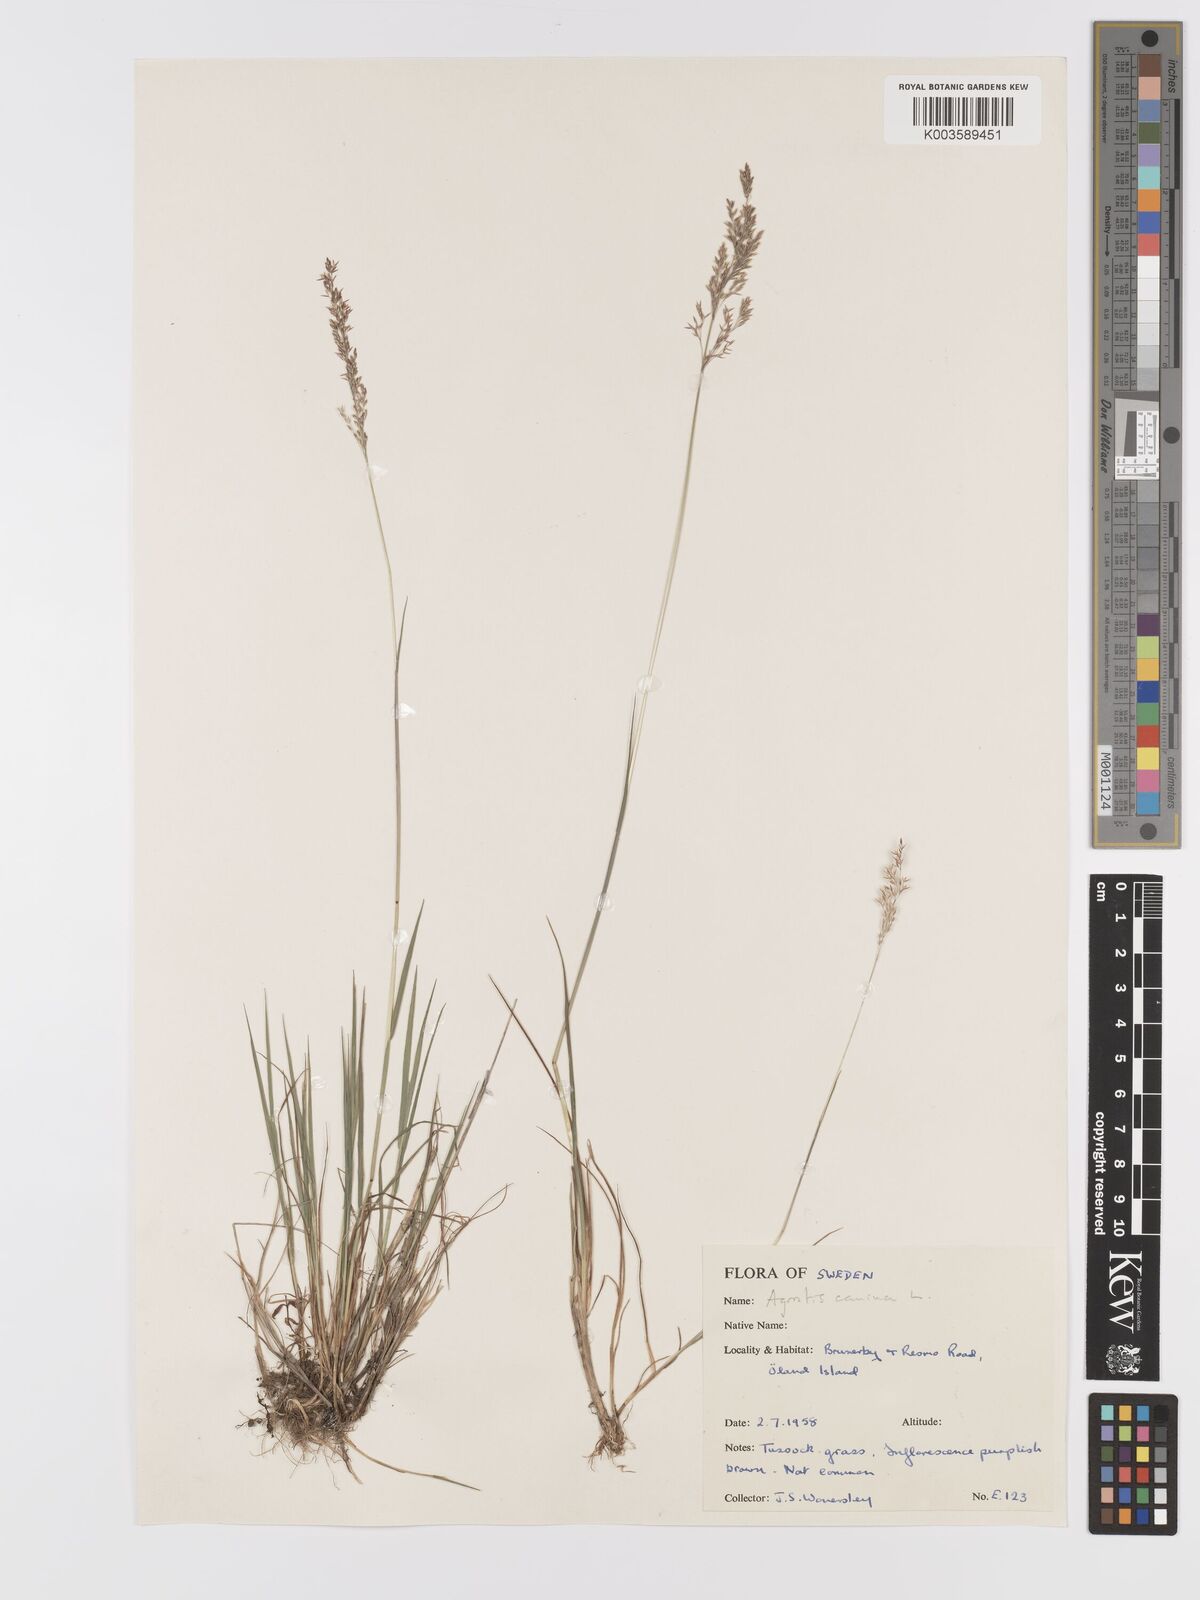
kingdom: Plantae
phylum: Tracheophyta
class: Liliopsida
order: Poales
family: Poaceae
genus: Agrostis
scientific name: Agrostis canina
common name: Velvet bent
